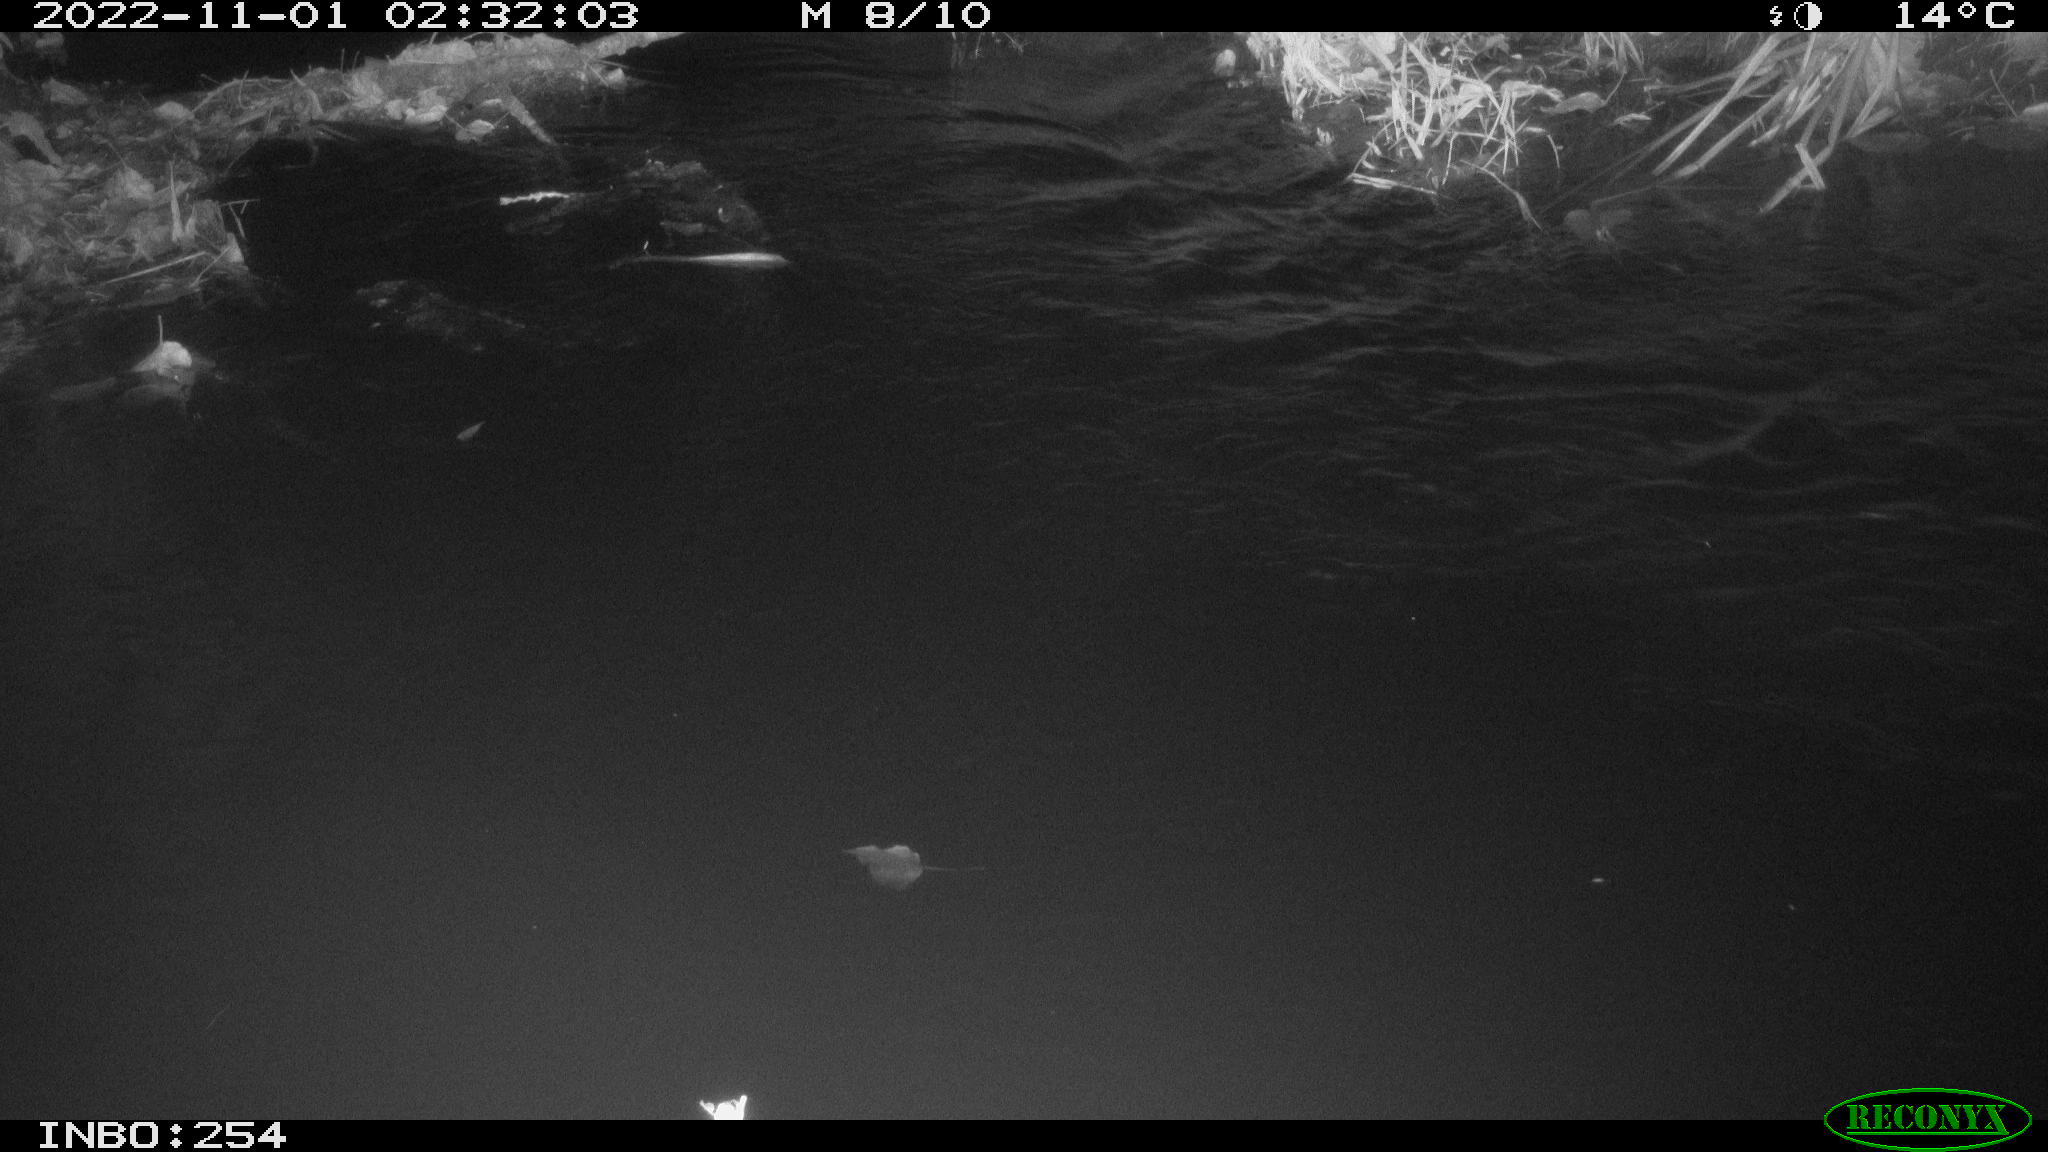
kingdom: Animalia
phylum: Chordata
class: Aves
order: Anseriformes
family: Anatidae
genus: Anas
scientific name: Anas
